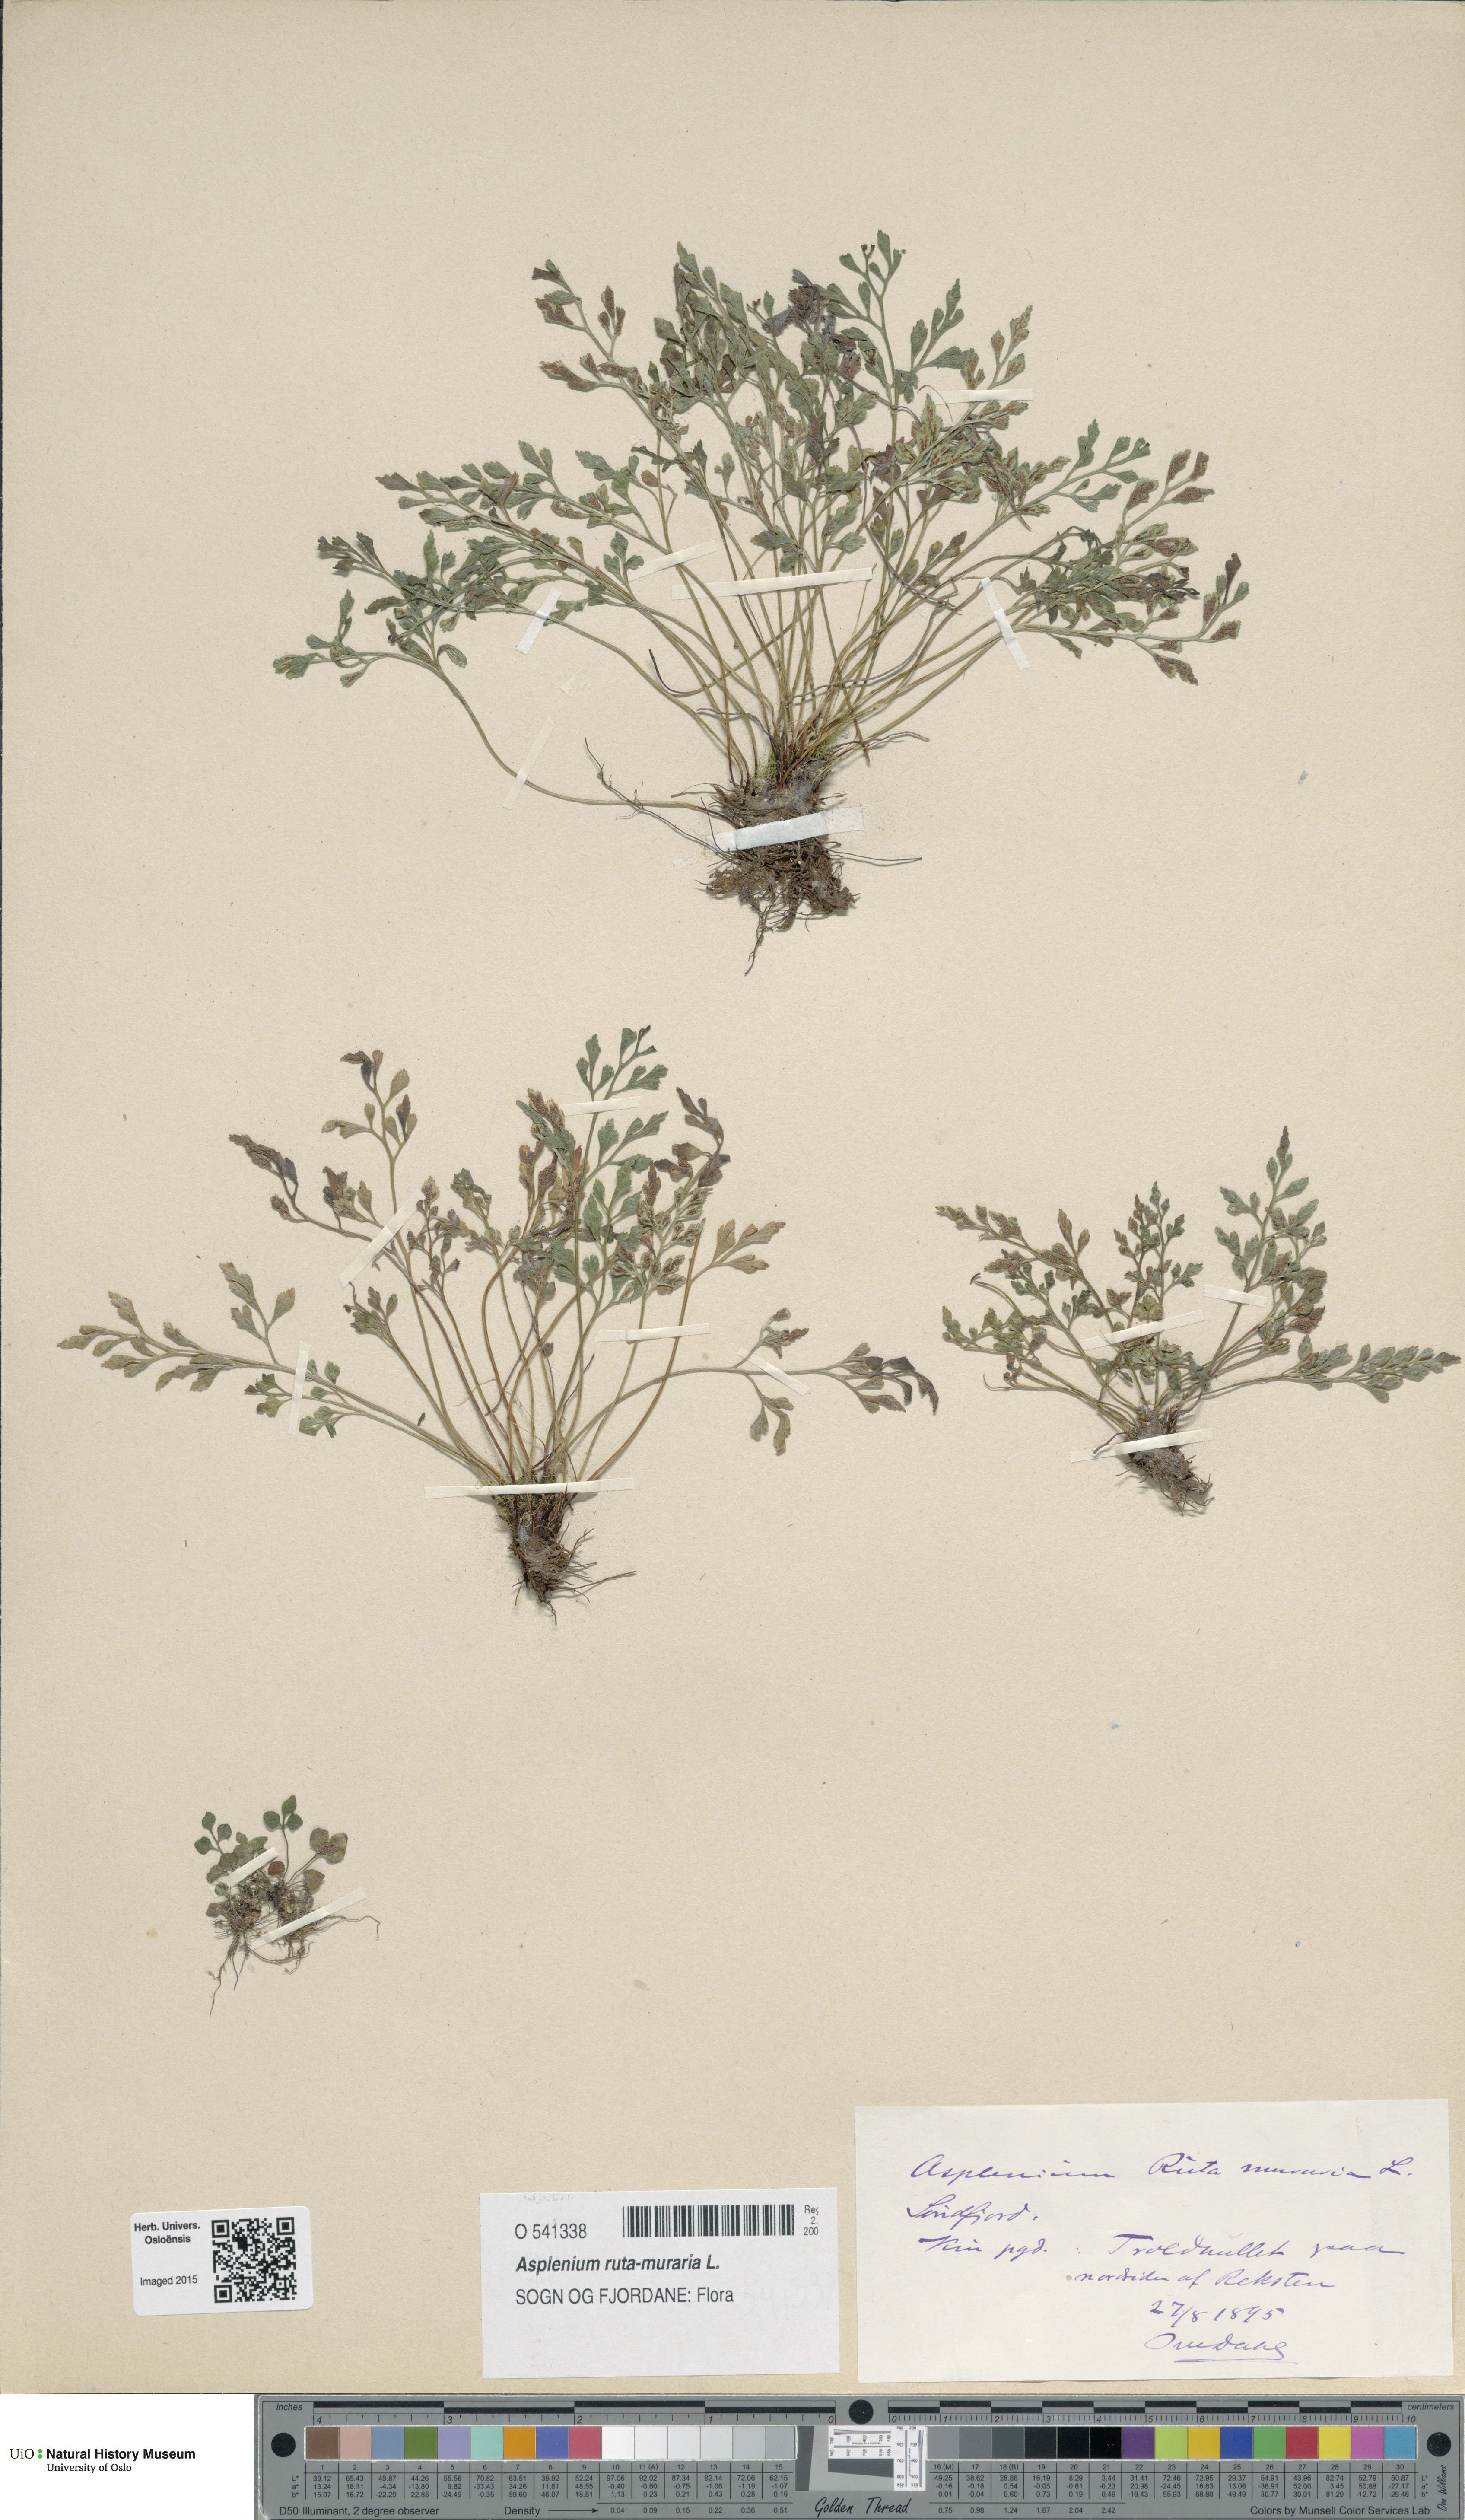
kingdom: Plantae
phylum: Tracheophyta
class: Polypodiopsida
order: Polypodiales
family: Aspleniaceae
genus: Asplenium
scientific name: Asplenium ruta-muraria
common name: Wall-rue
